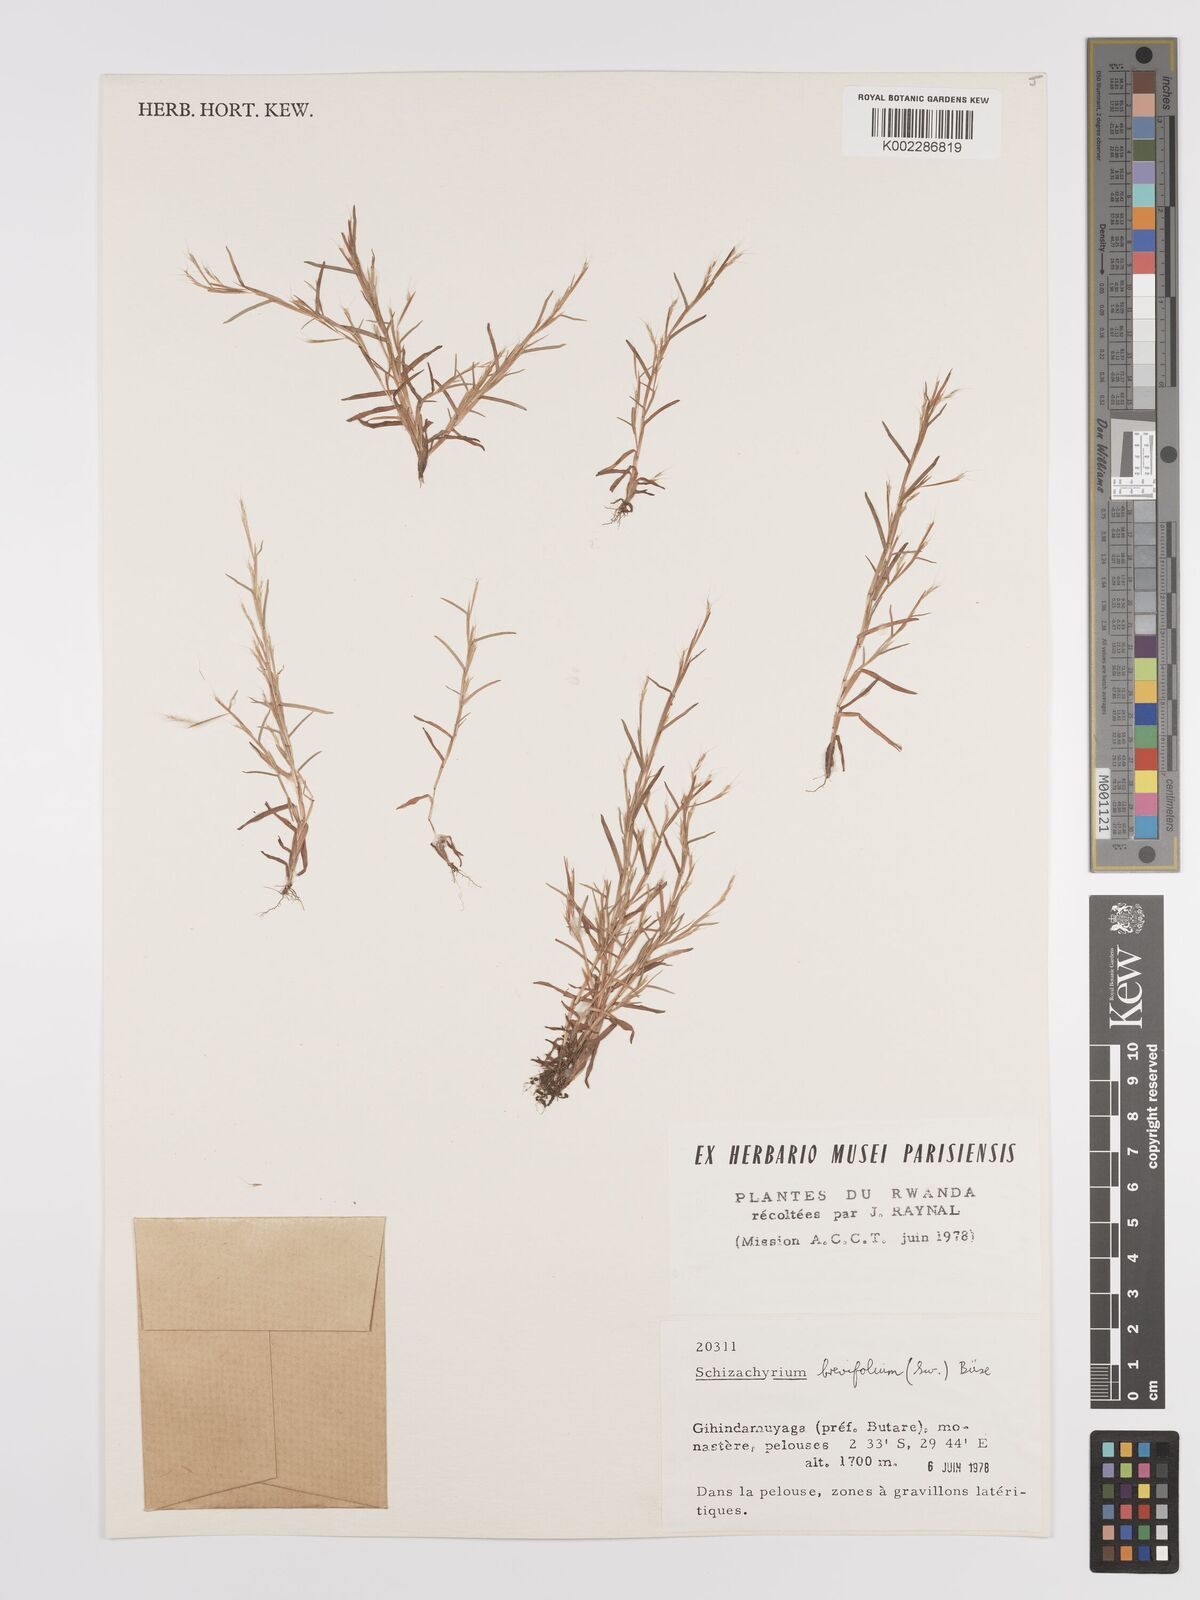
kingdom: Plantae
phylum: Tracheophyta
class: Liliopsida
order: Poales
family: Poaceae
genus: Schizachyrium
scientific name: Schizachyrium brevifolium
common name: Serillo dulce
